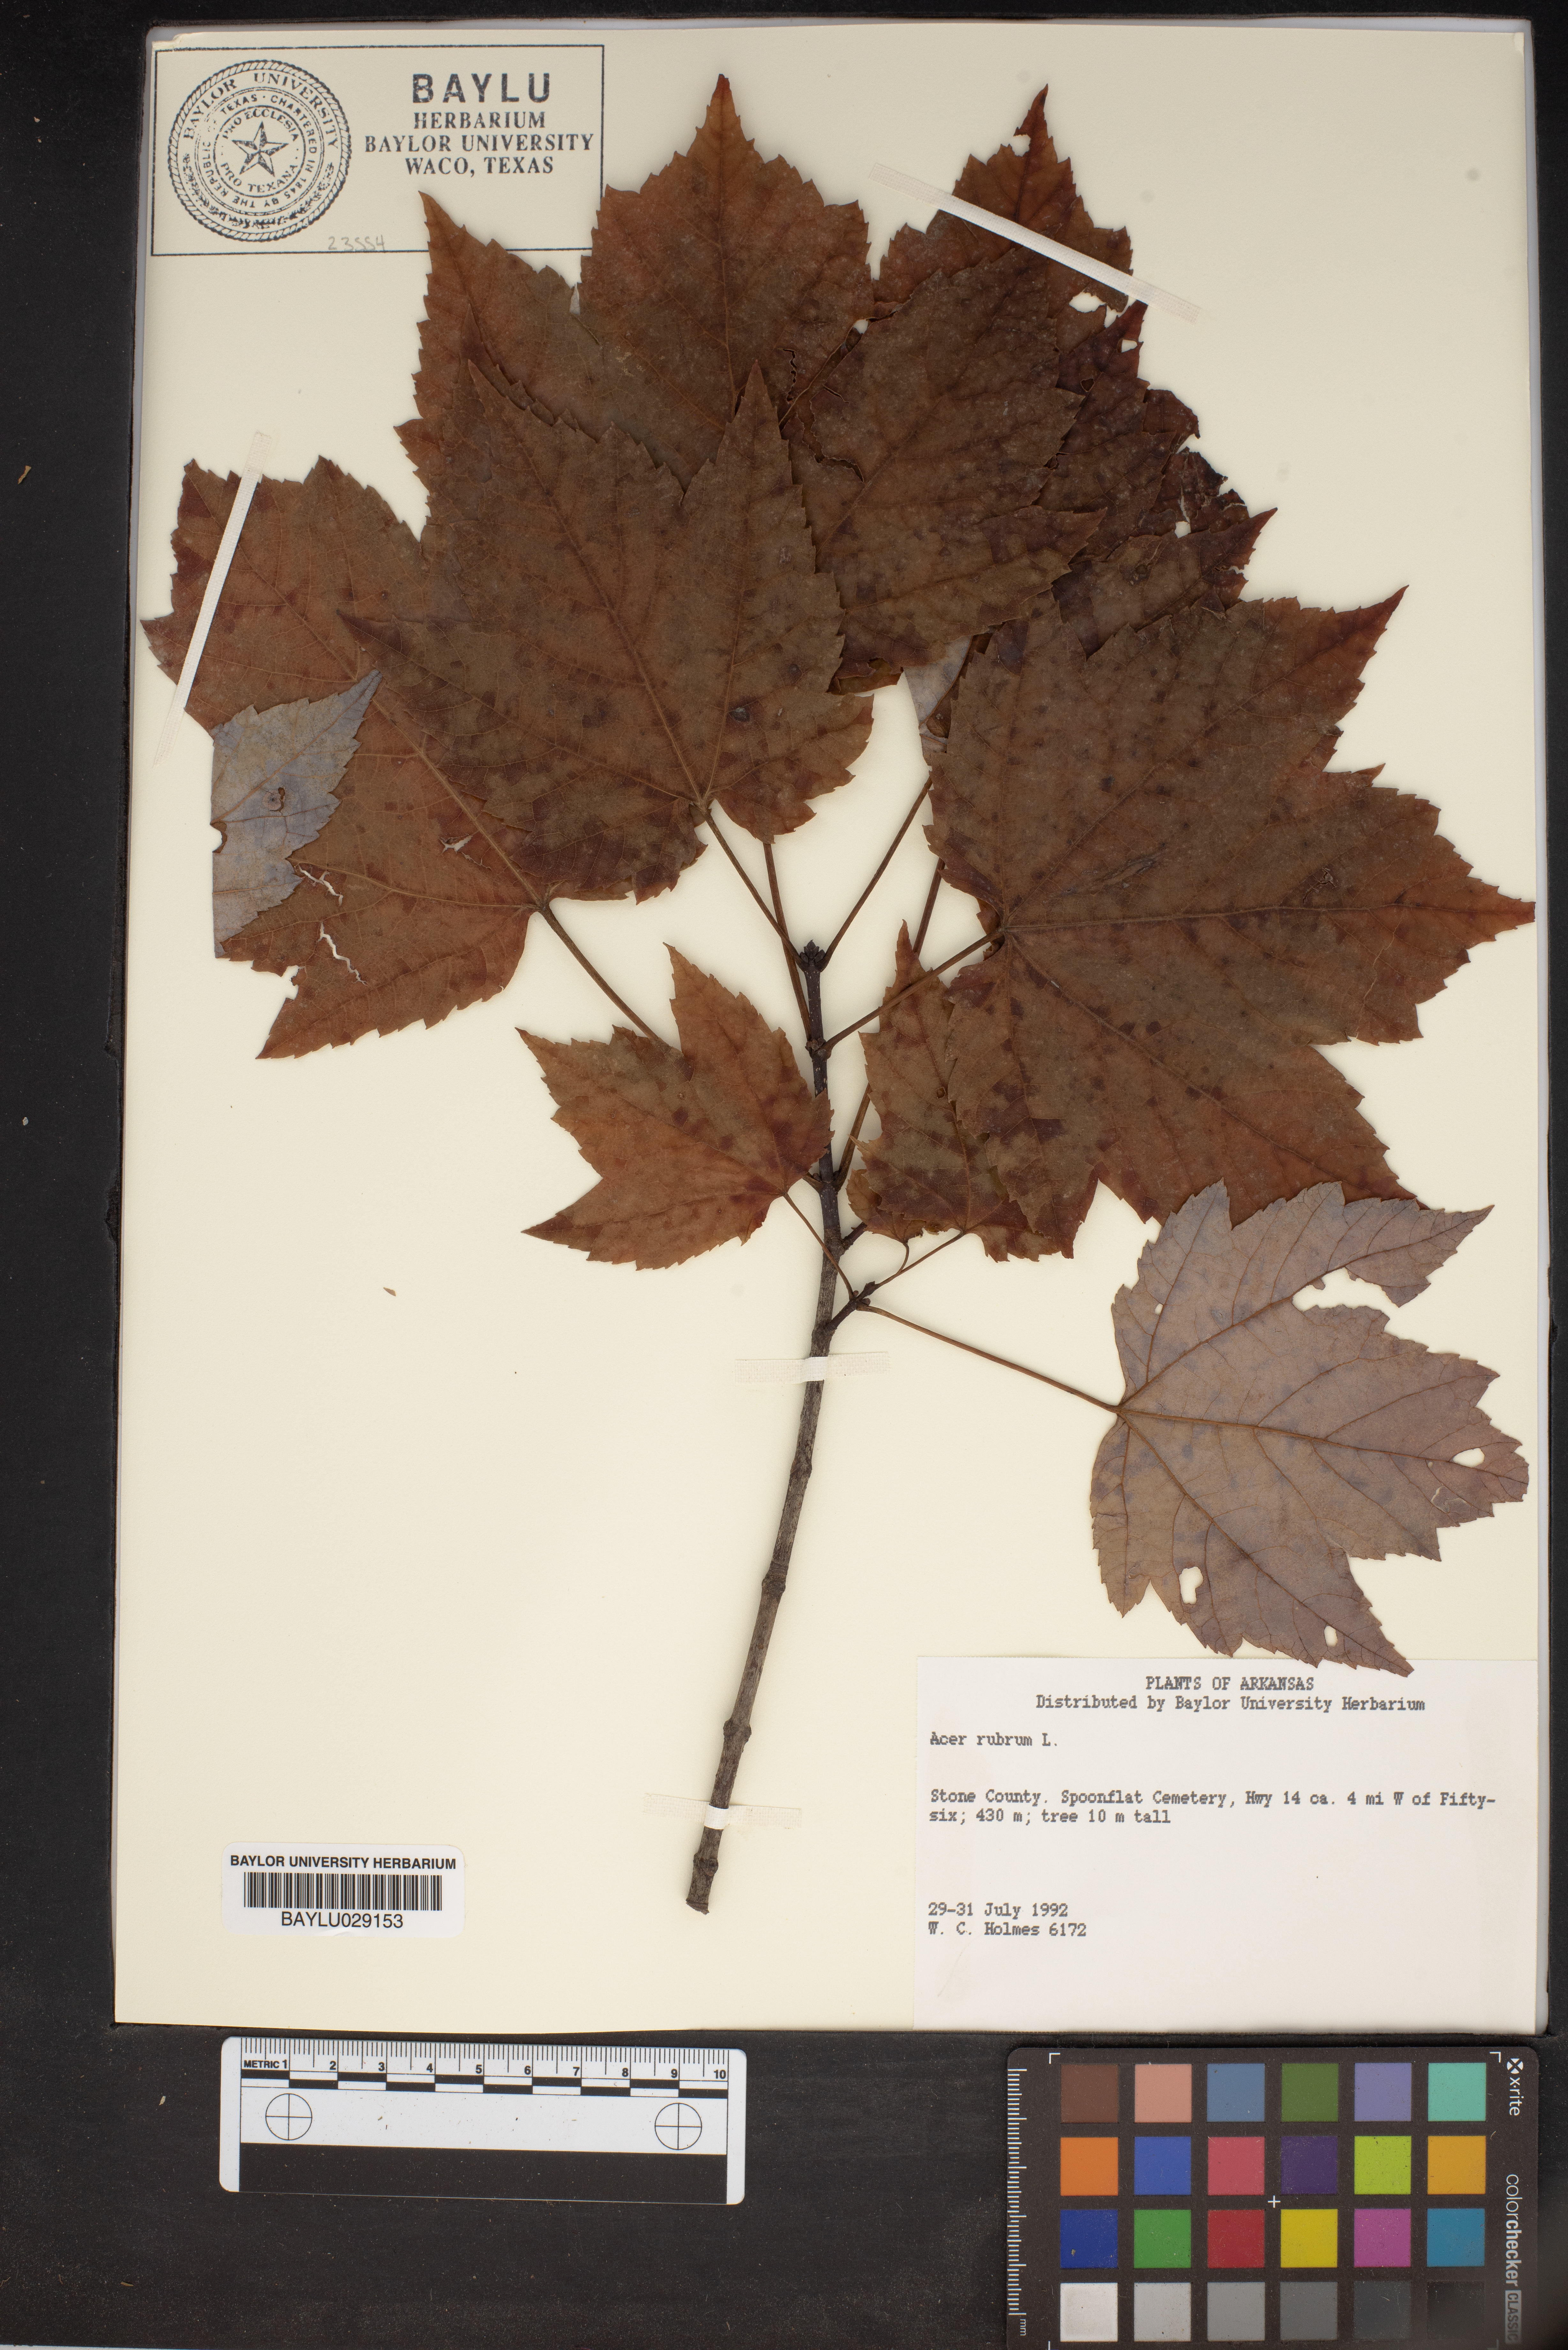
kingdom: Plantae
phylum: Tracheophyta
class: Magnoliopsida
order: Sapindales
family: Sapindaceae
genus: Acer
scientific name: Acer rubrum
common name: Red maple
